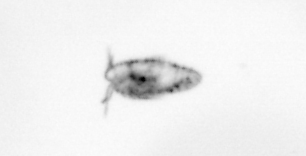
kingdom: Animalia
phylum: Arthropoda
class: Copepoda
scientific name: Copepoda
